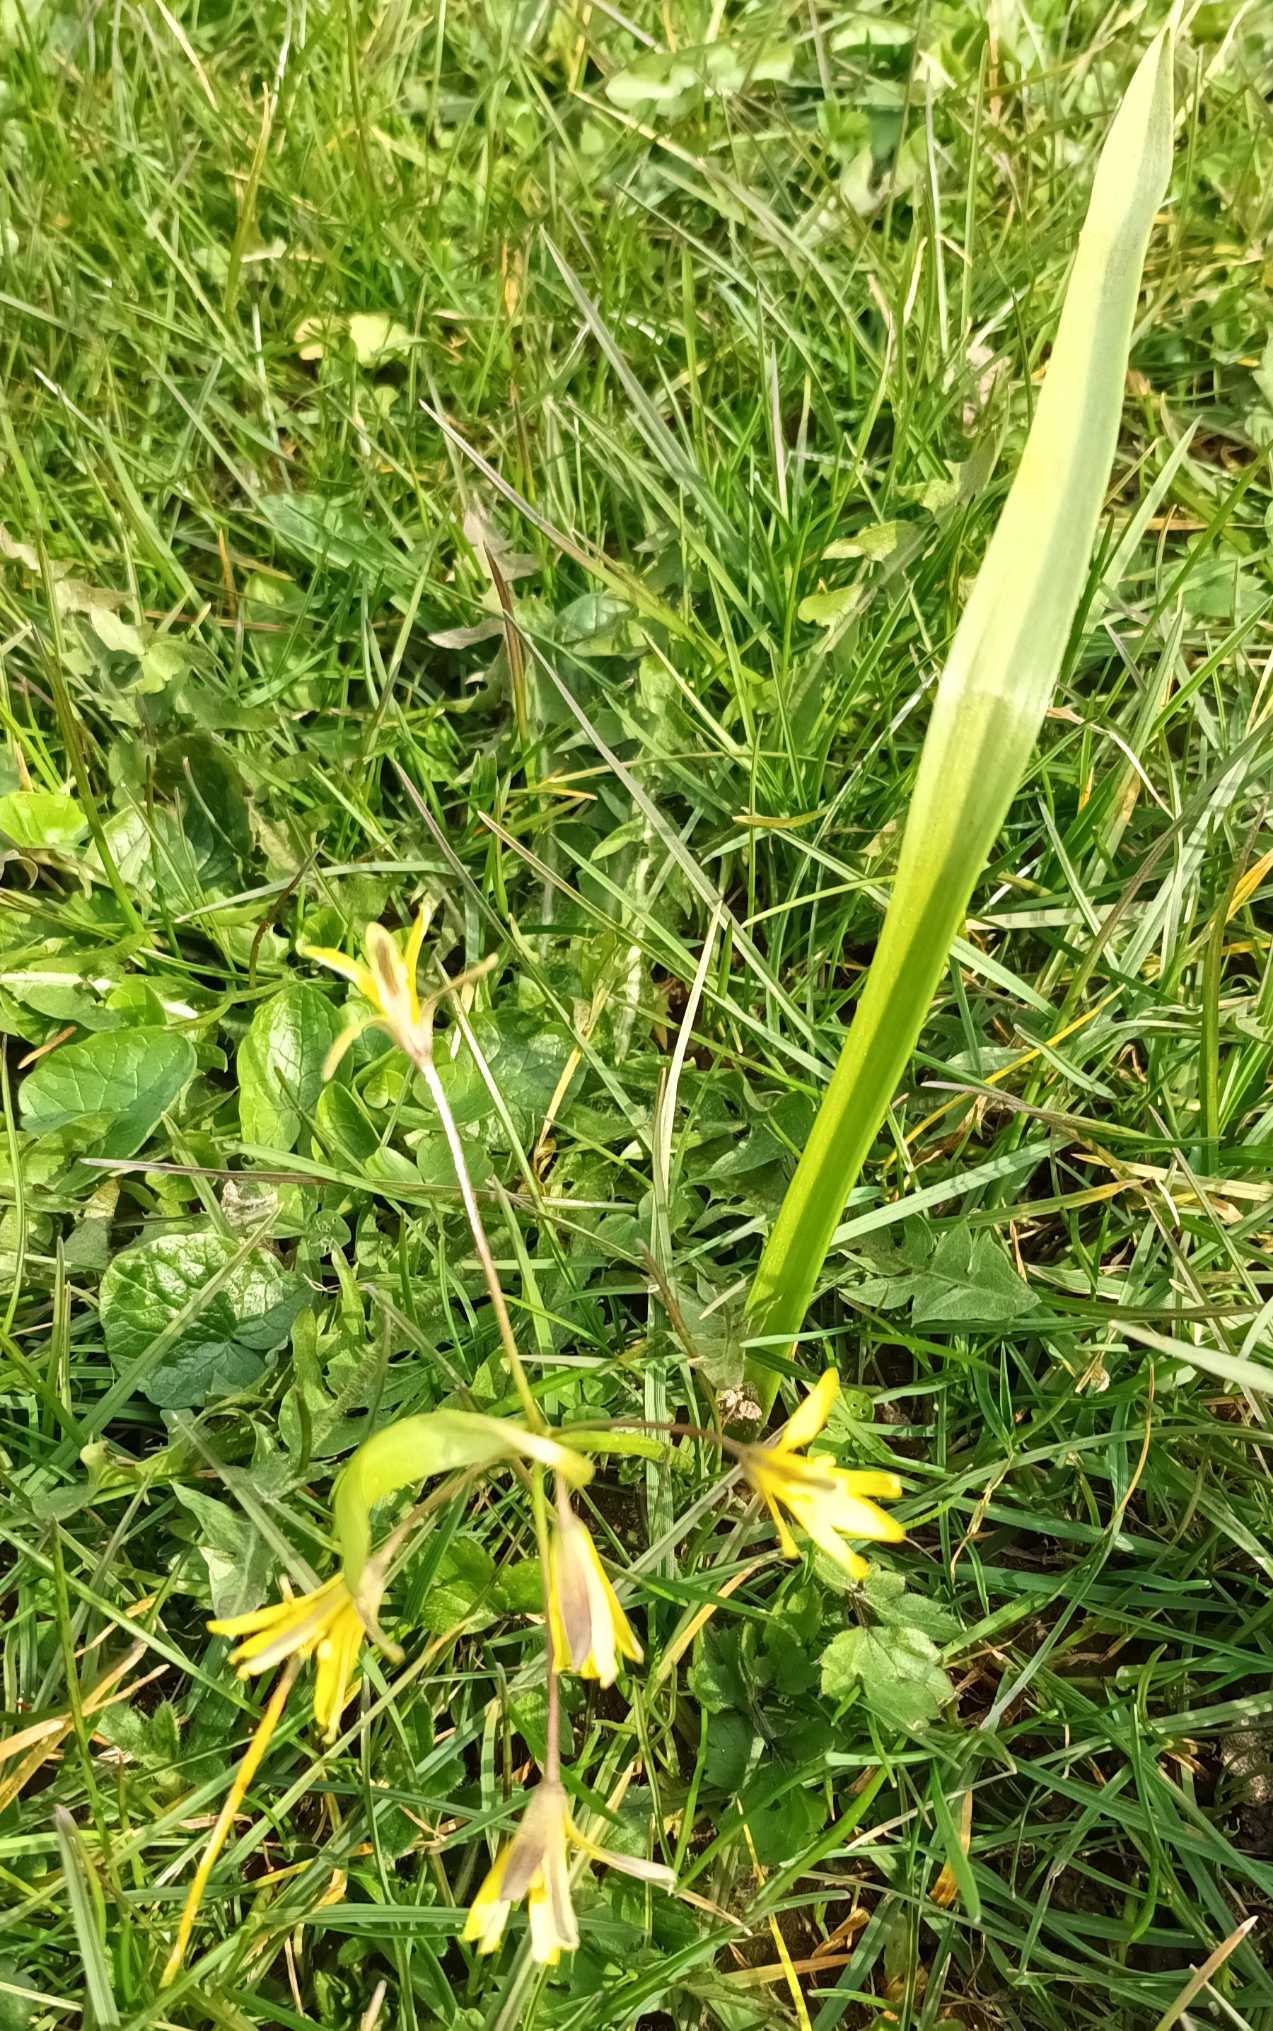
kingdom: Plantae
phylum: Tracheophyta
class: Liliopsida
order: Liliales
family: Liliaceae
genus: Gagea
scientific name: Gagea lutea
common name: Almindelig guldstjerne
